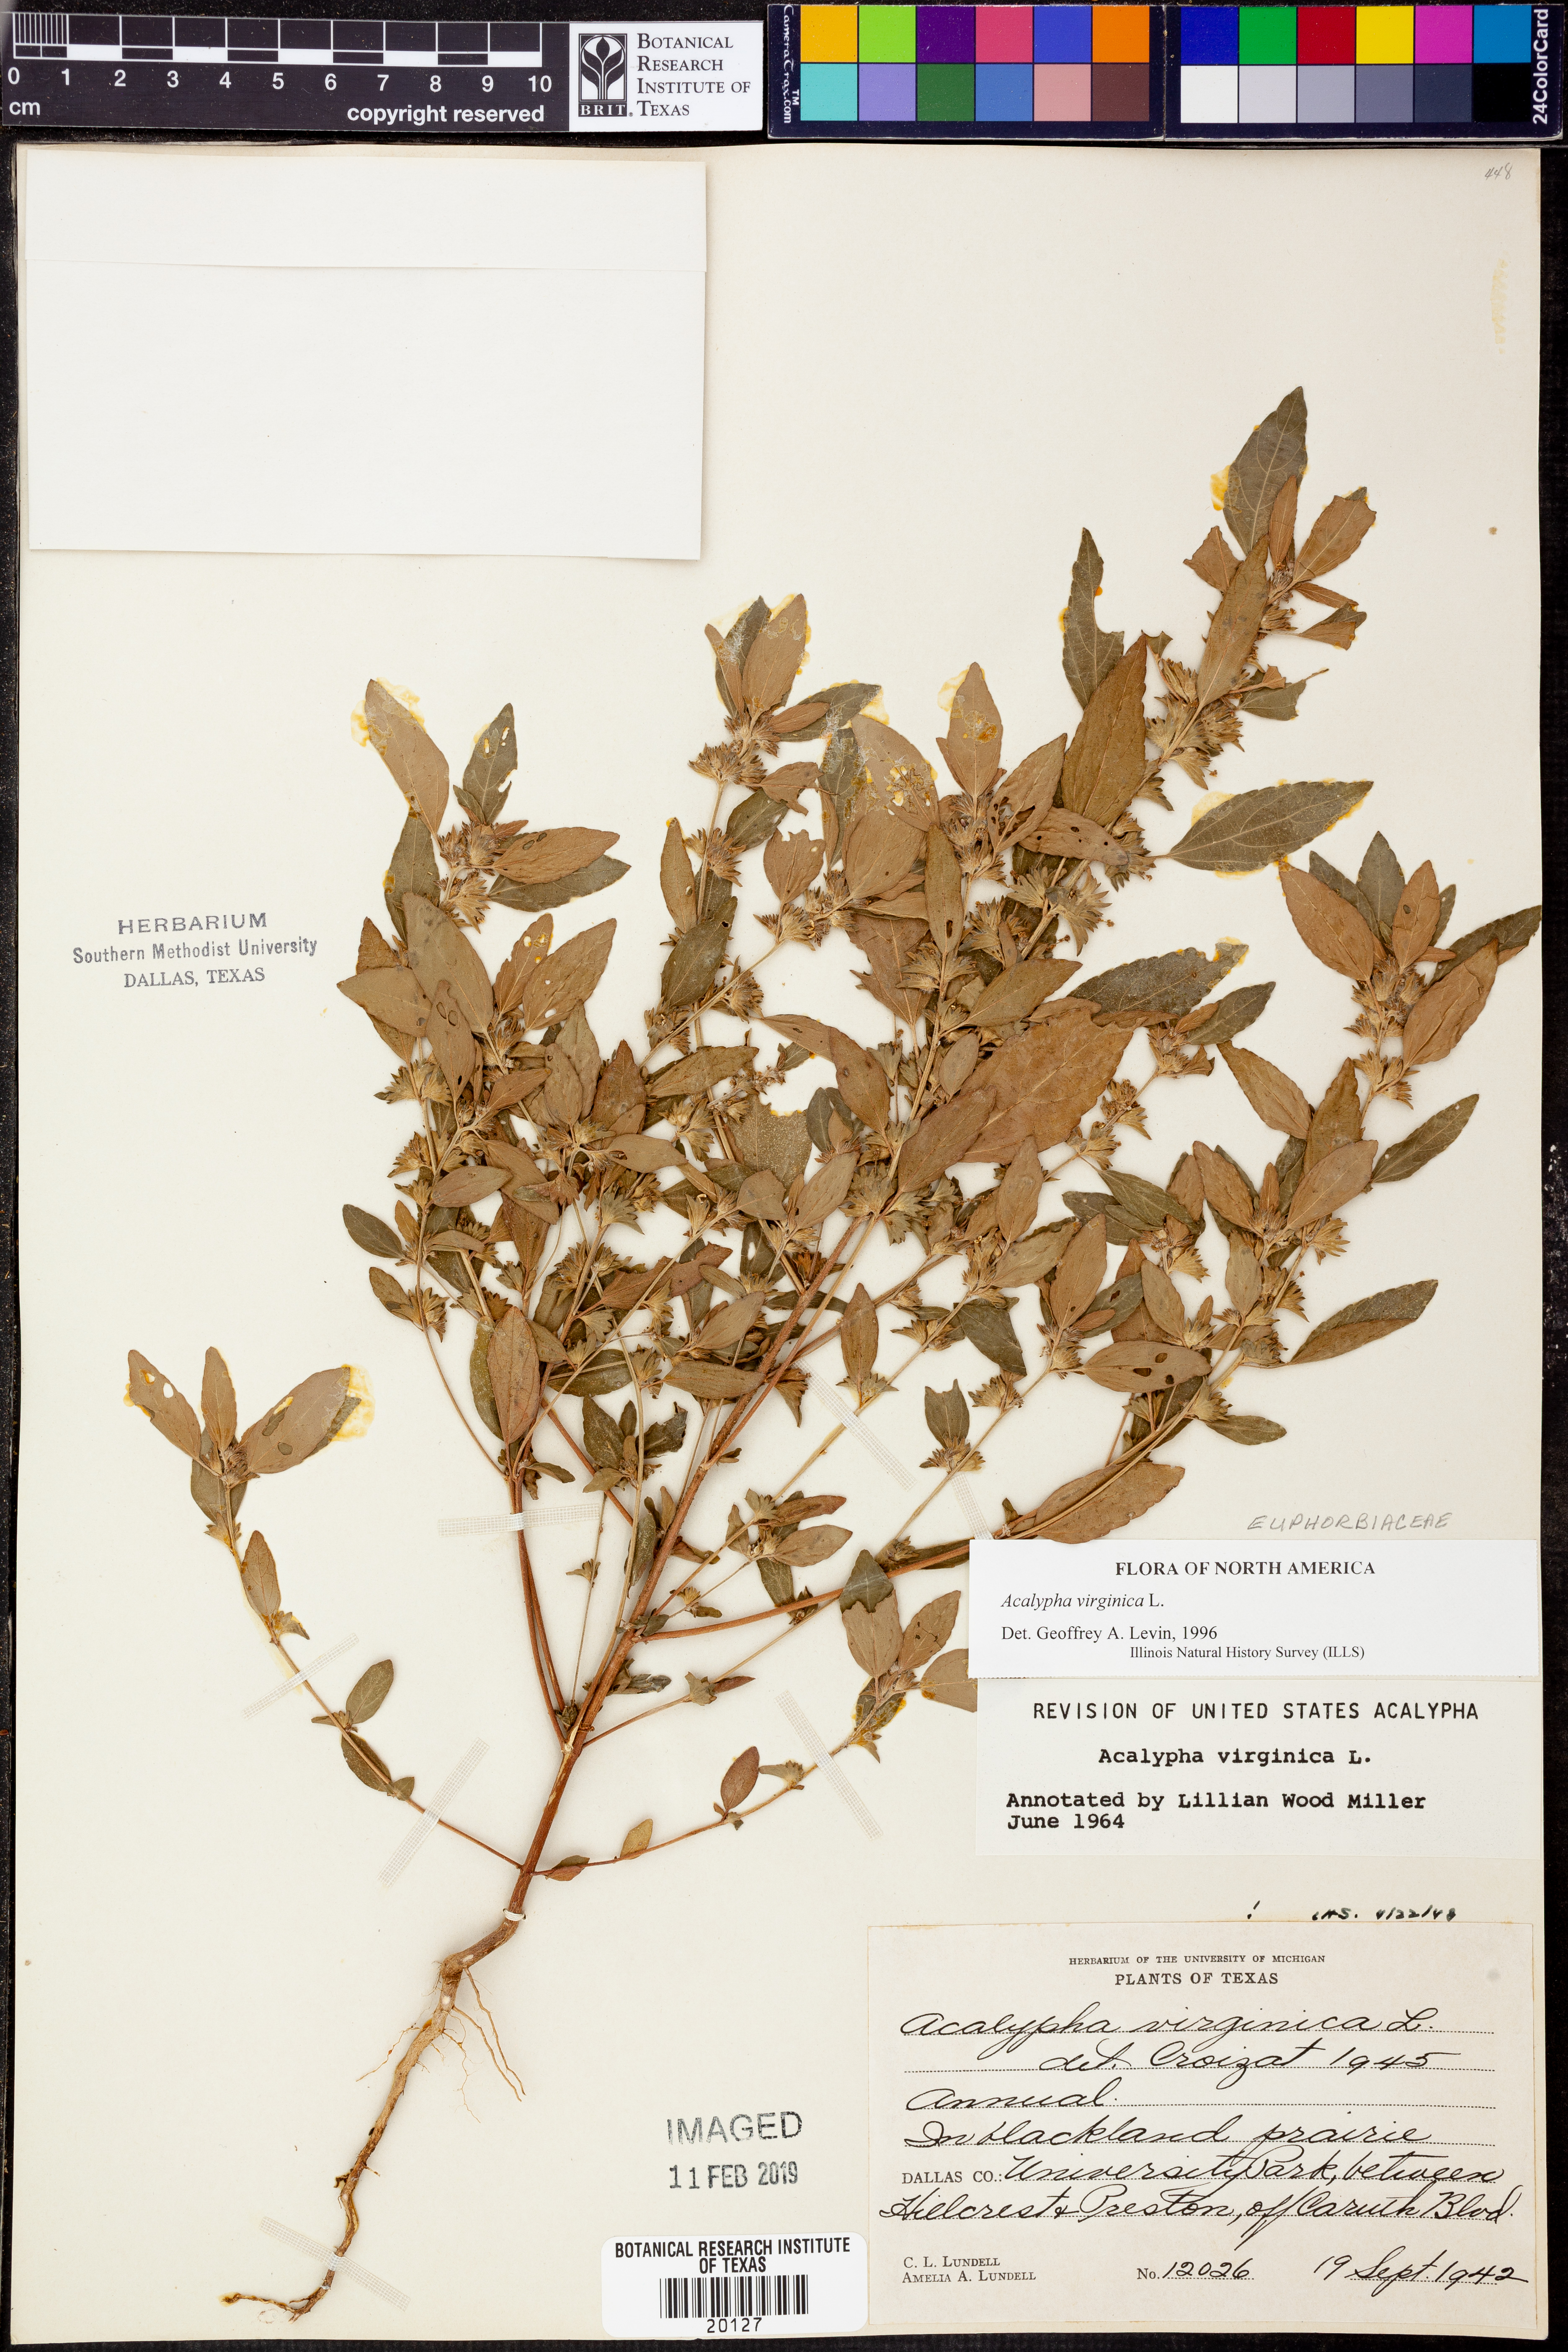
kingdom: Plantae
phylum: Tracheophyta
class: Magnoliopsida
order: Malpighiales
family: Euphorbiaceae
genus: Acalypha
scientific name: Acalypha virginica
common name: Virginia copperleaf
